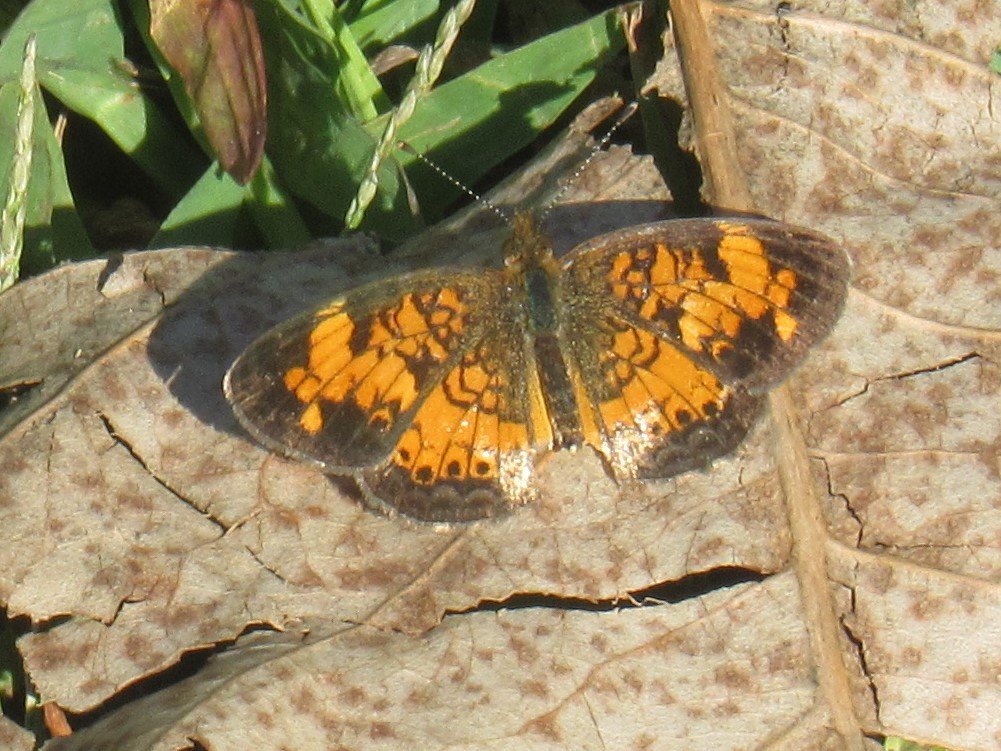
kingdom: Animalia
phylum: Arthropoda
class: Insecta
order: Lepidoptera
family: Nymphalidae
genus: Phyciodes
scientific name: Phyciodes tharos
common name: Pearl Crescent
